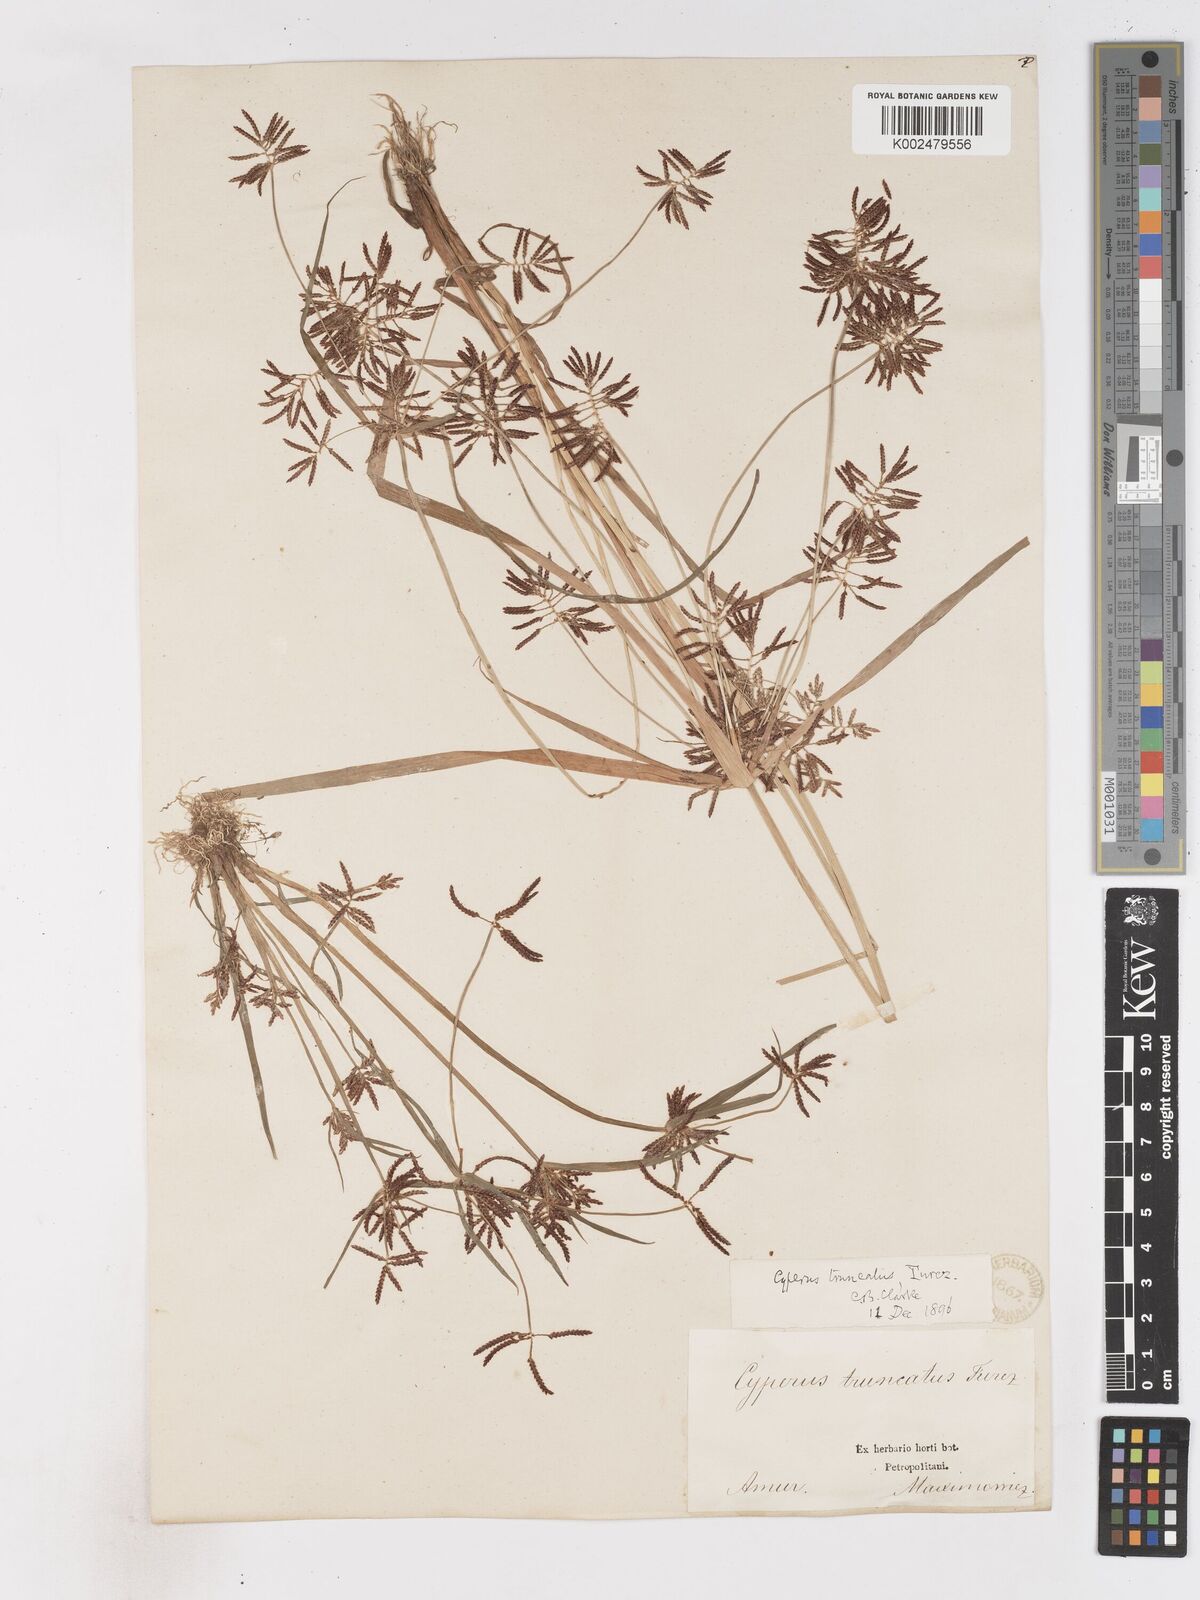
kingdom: Plantae
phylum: Tracheophyta
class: Liliopsida
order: Poales
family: Cyperaceae
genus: Cyperus
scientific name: Cyperus orthostachyus
